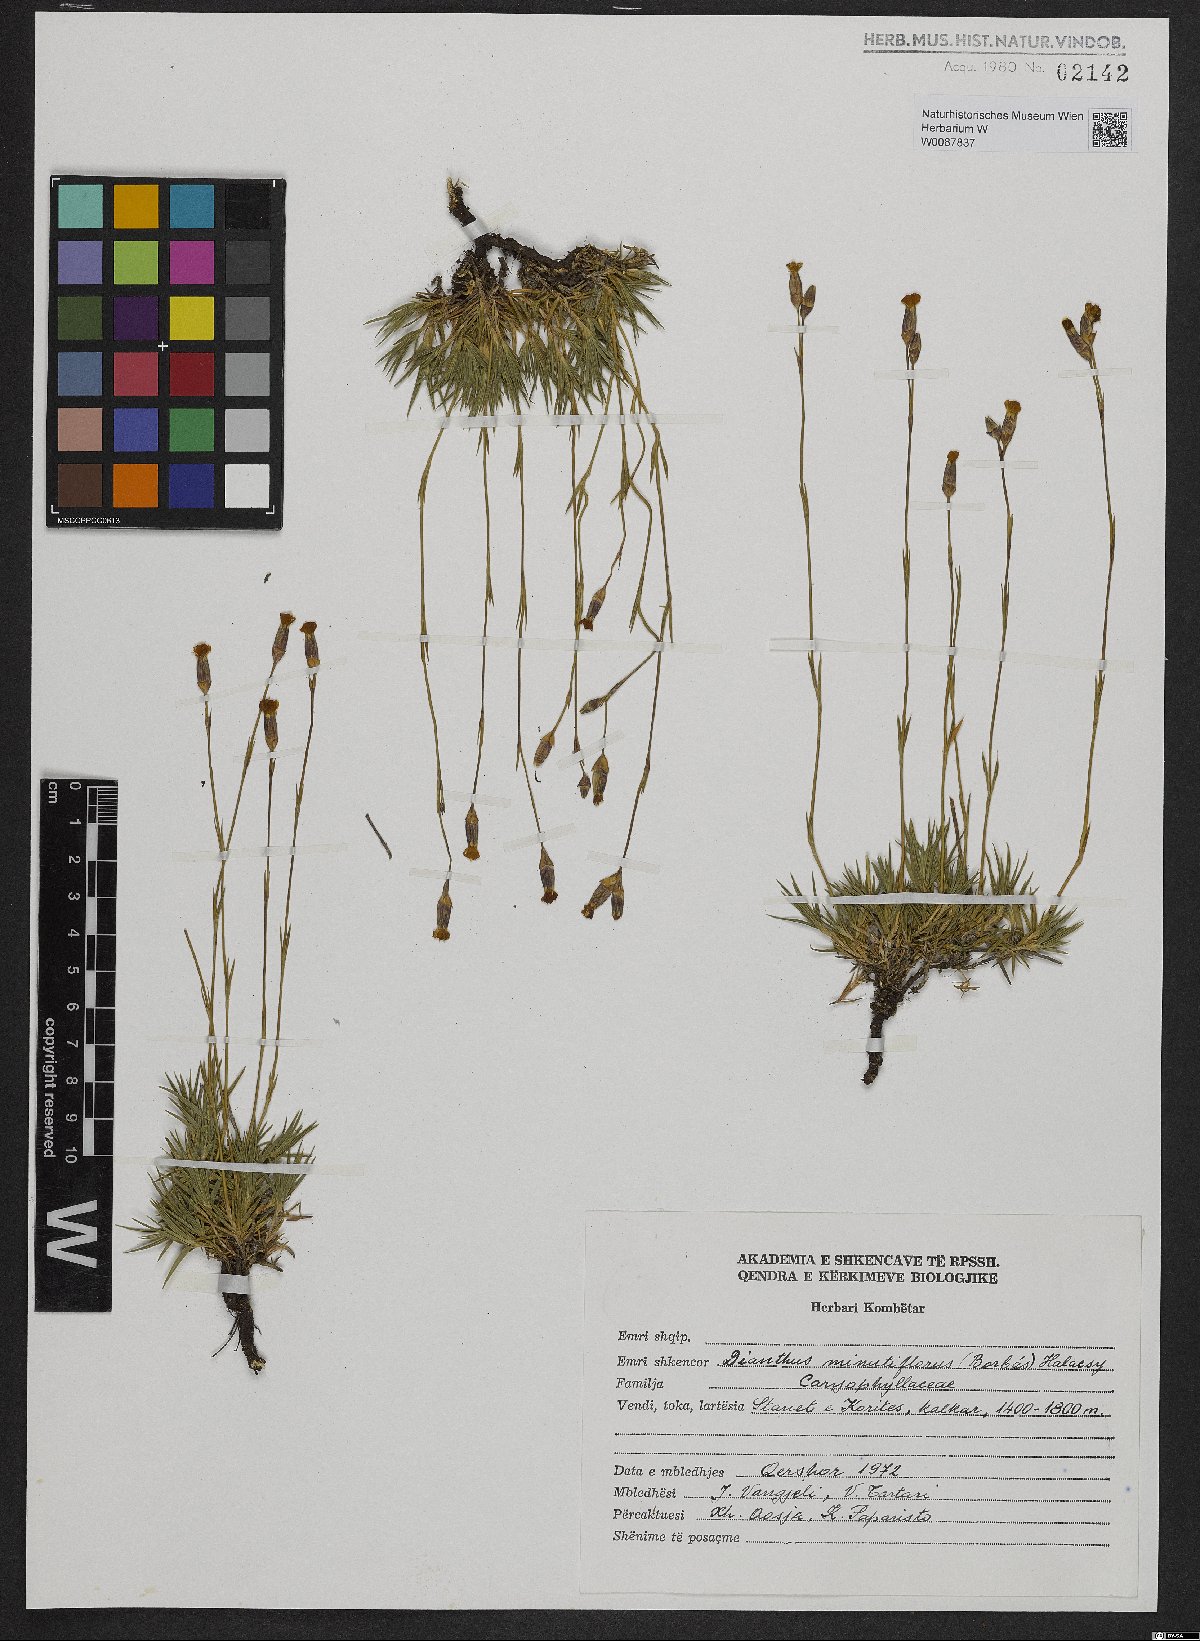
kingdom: Plantae
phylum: Tracheophyta
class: Magnoliopsida
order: Caryophyllales
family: Caryophyllaceae
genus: Dianthus
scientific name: Dianthus integer
